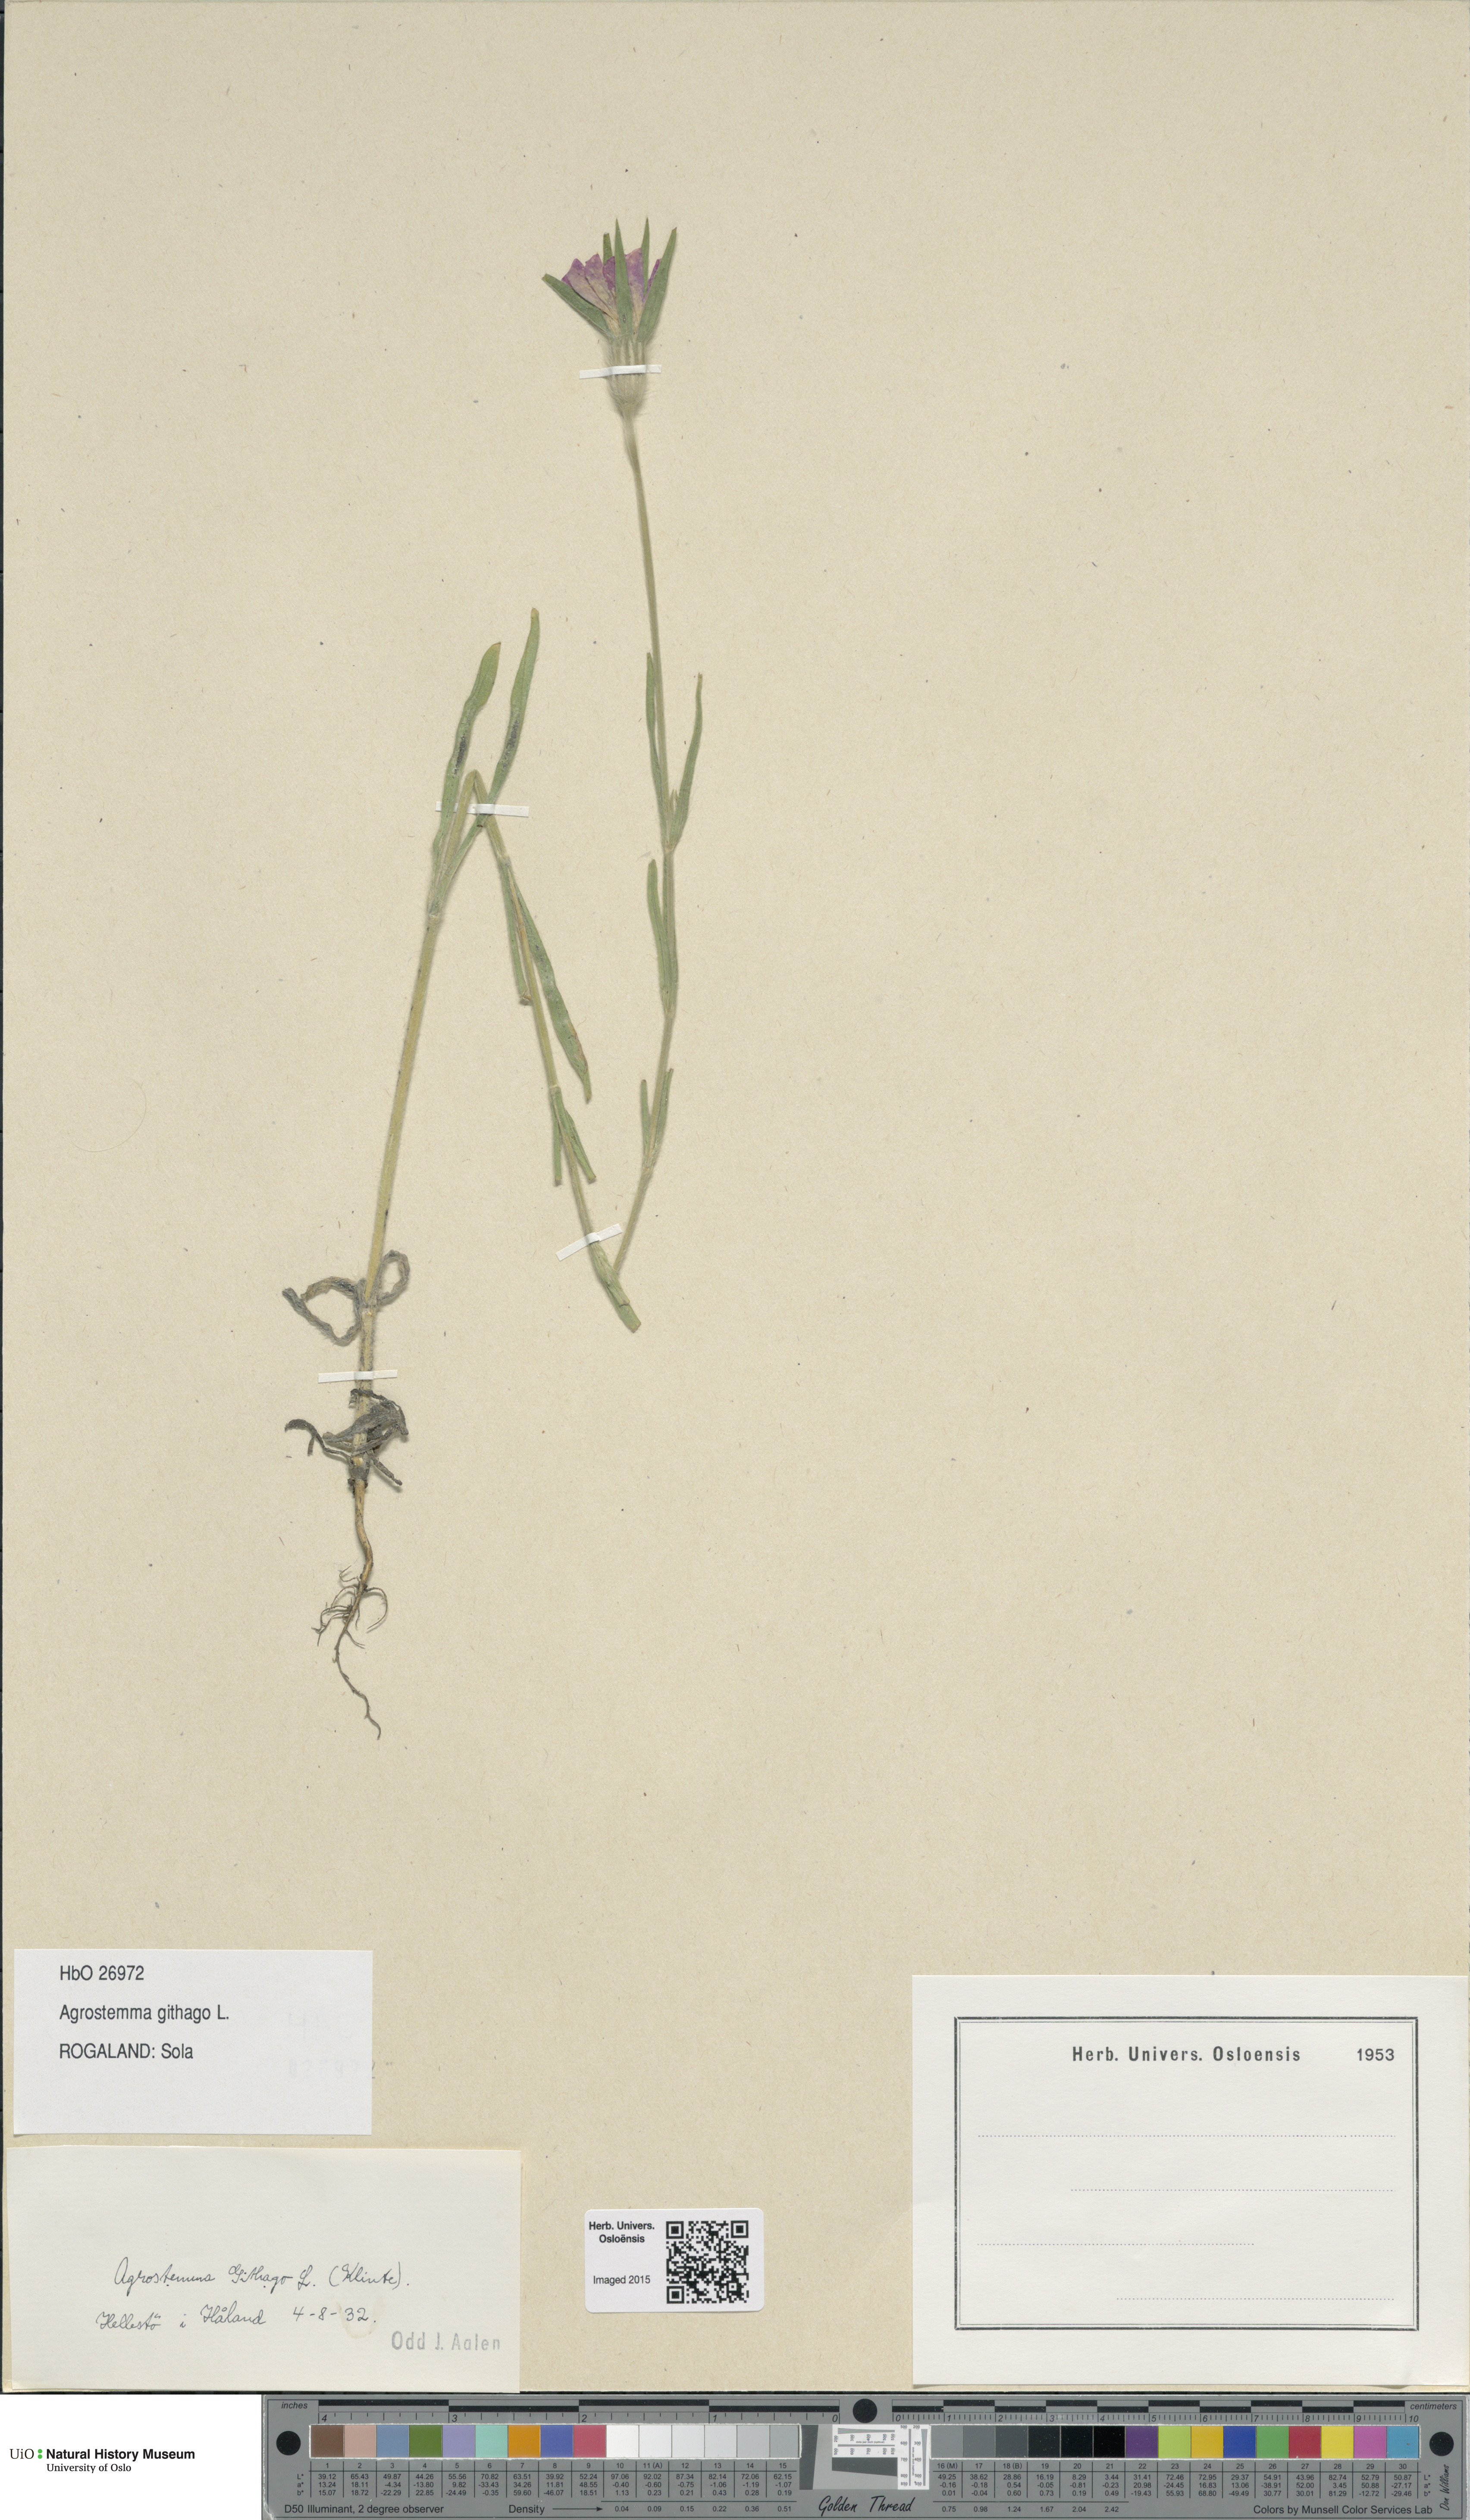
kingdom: Plantae
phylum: Tracheophyta
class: Magnoliopsida
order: Caryophyllales
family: Caryophyllaceae
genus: Agrostemma
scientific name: Agrostemma githago
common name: Common corncockle
